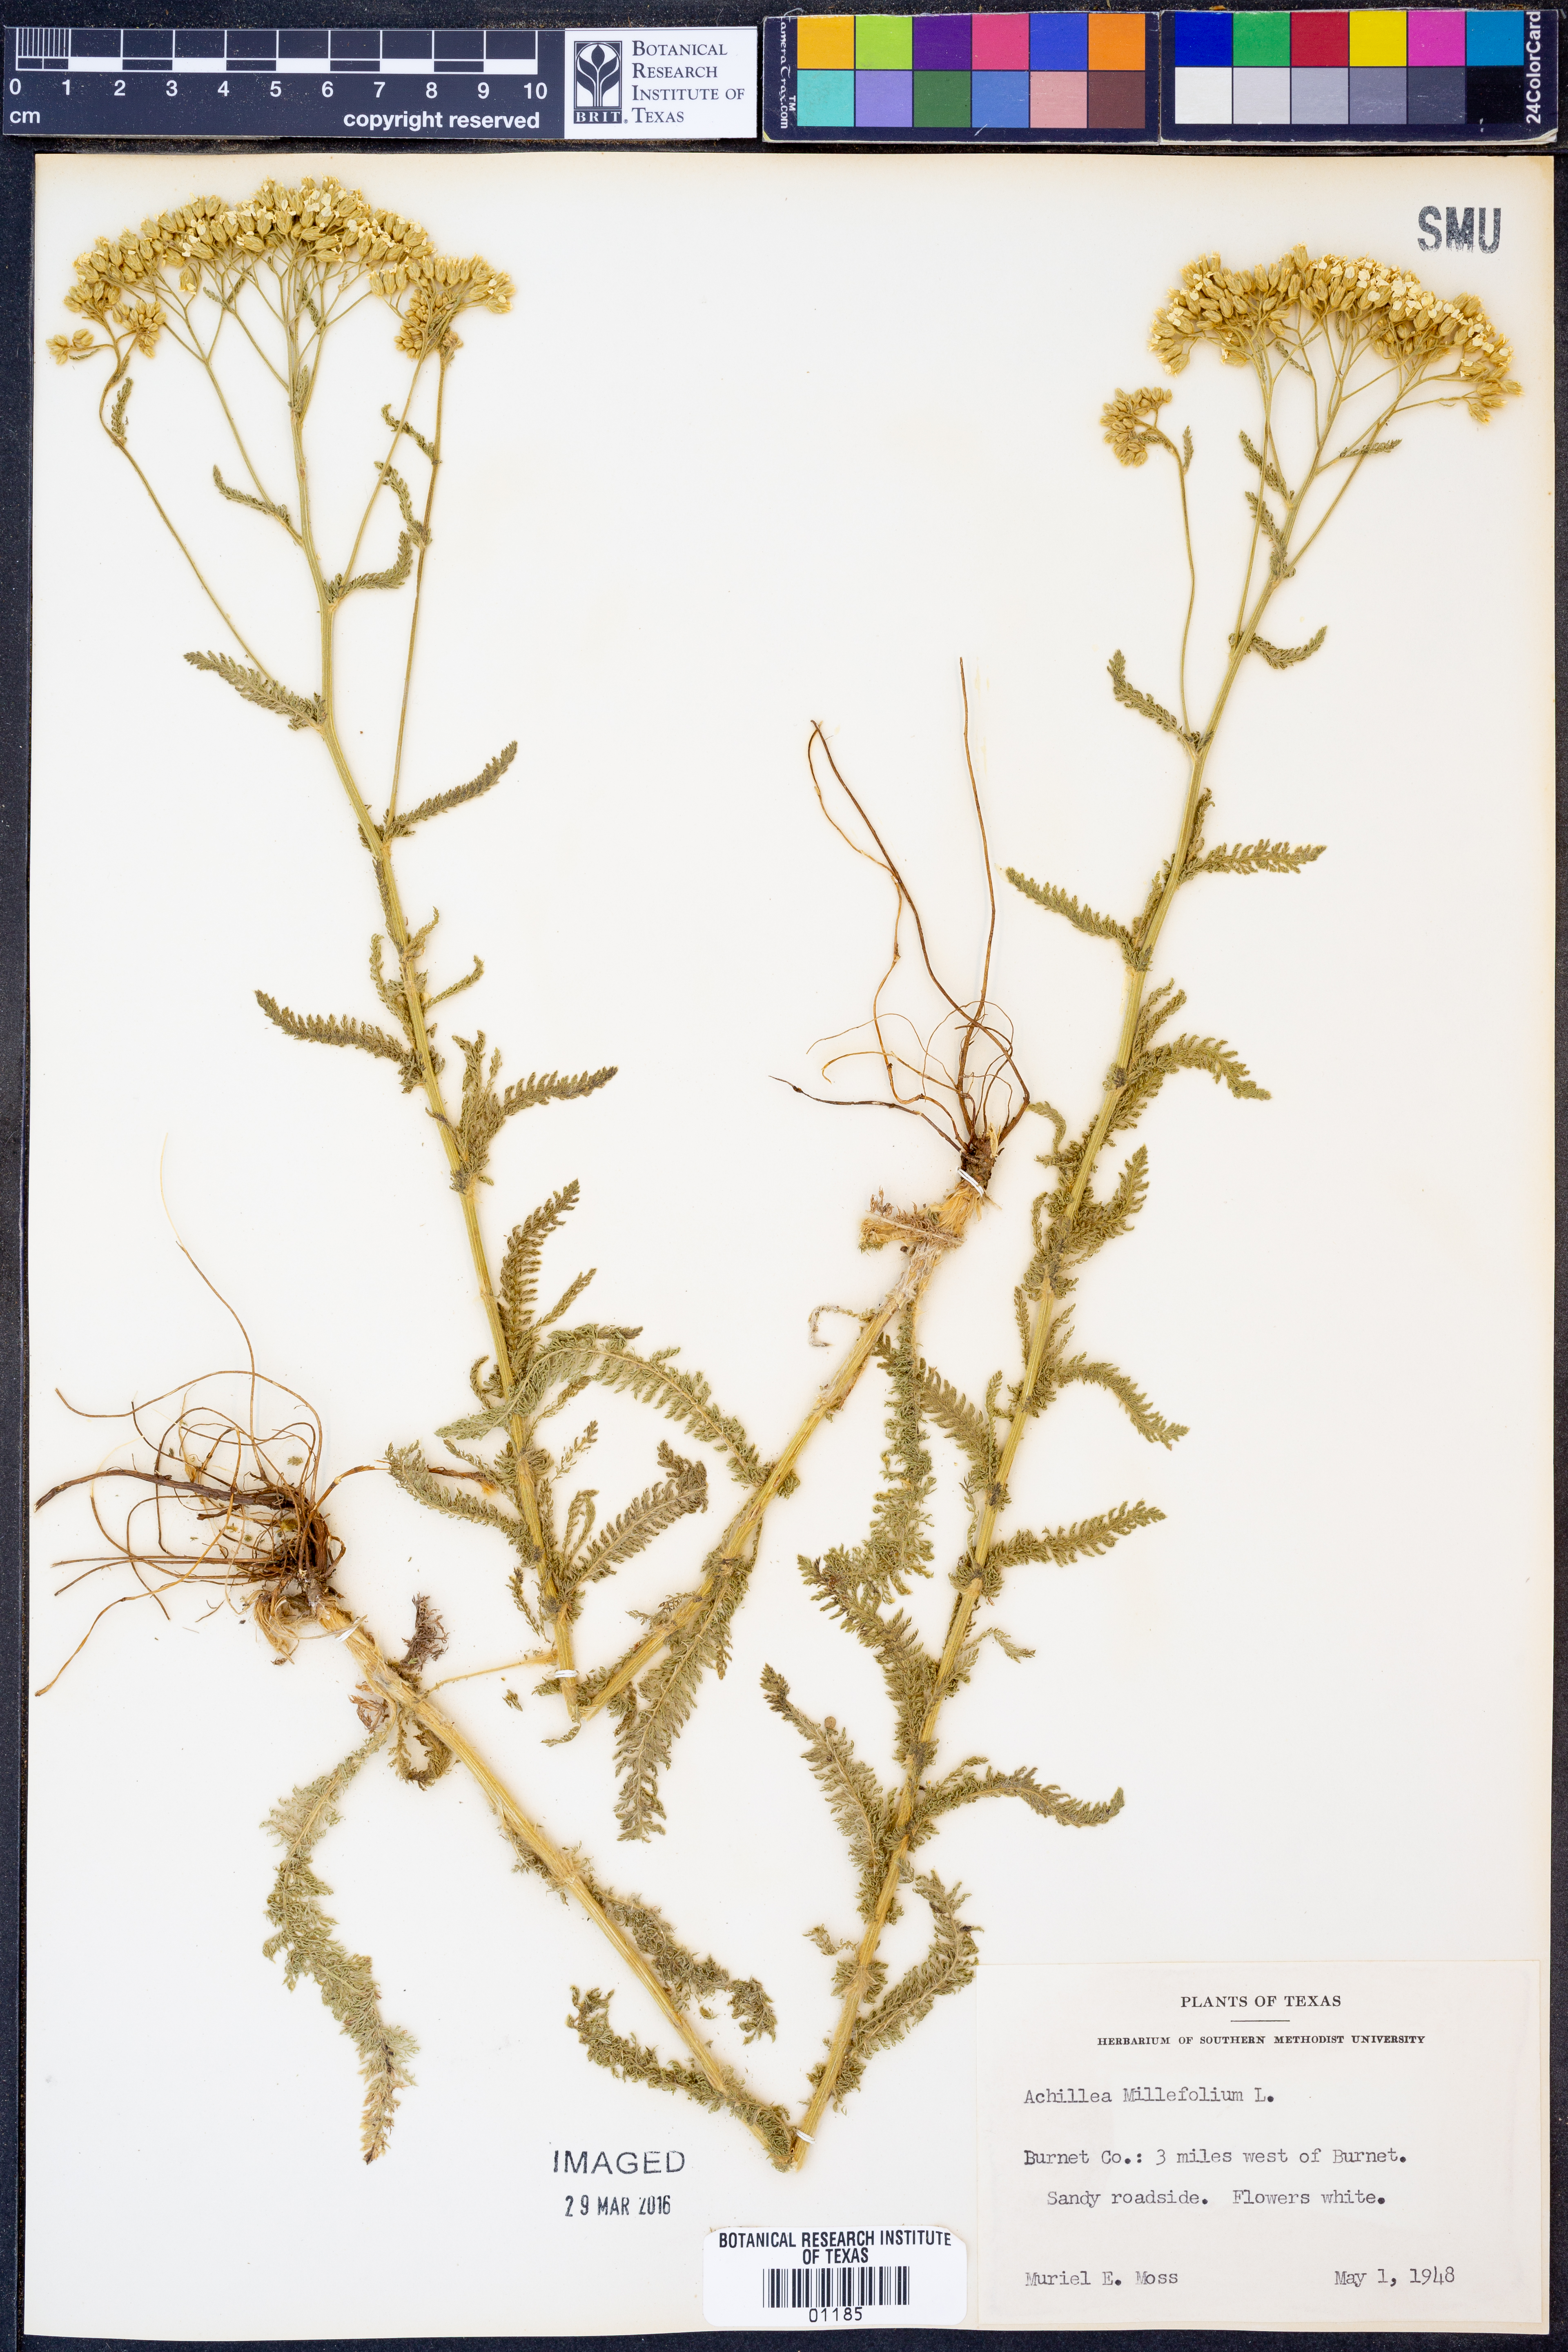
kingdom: Plantae
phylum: Tracheophyta
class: Magnoliopsida
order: Asterales
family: Asteraceae
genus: Achillea
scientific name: Achillea millefolium
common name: Yarrow
